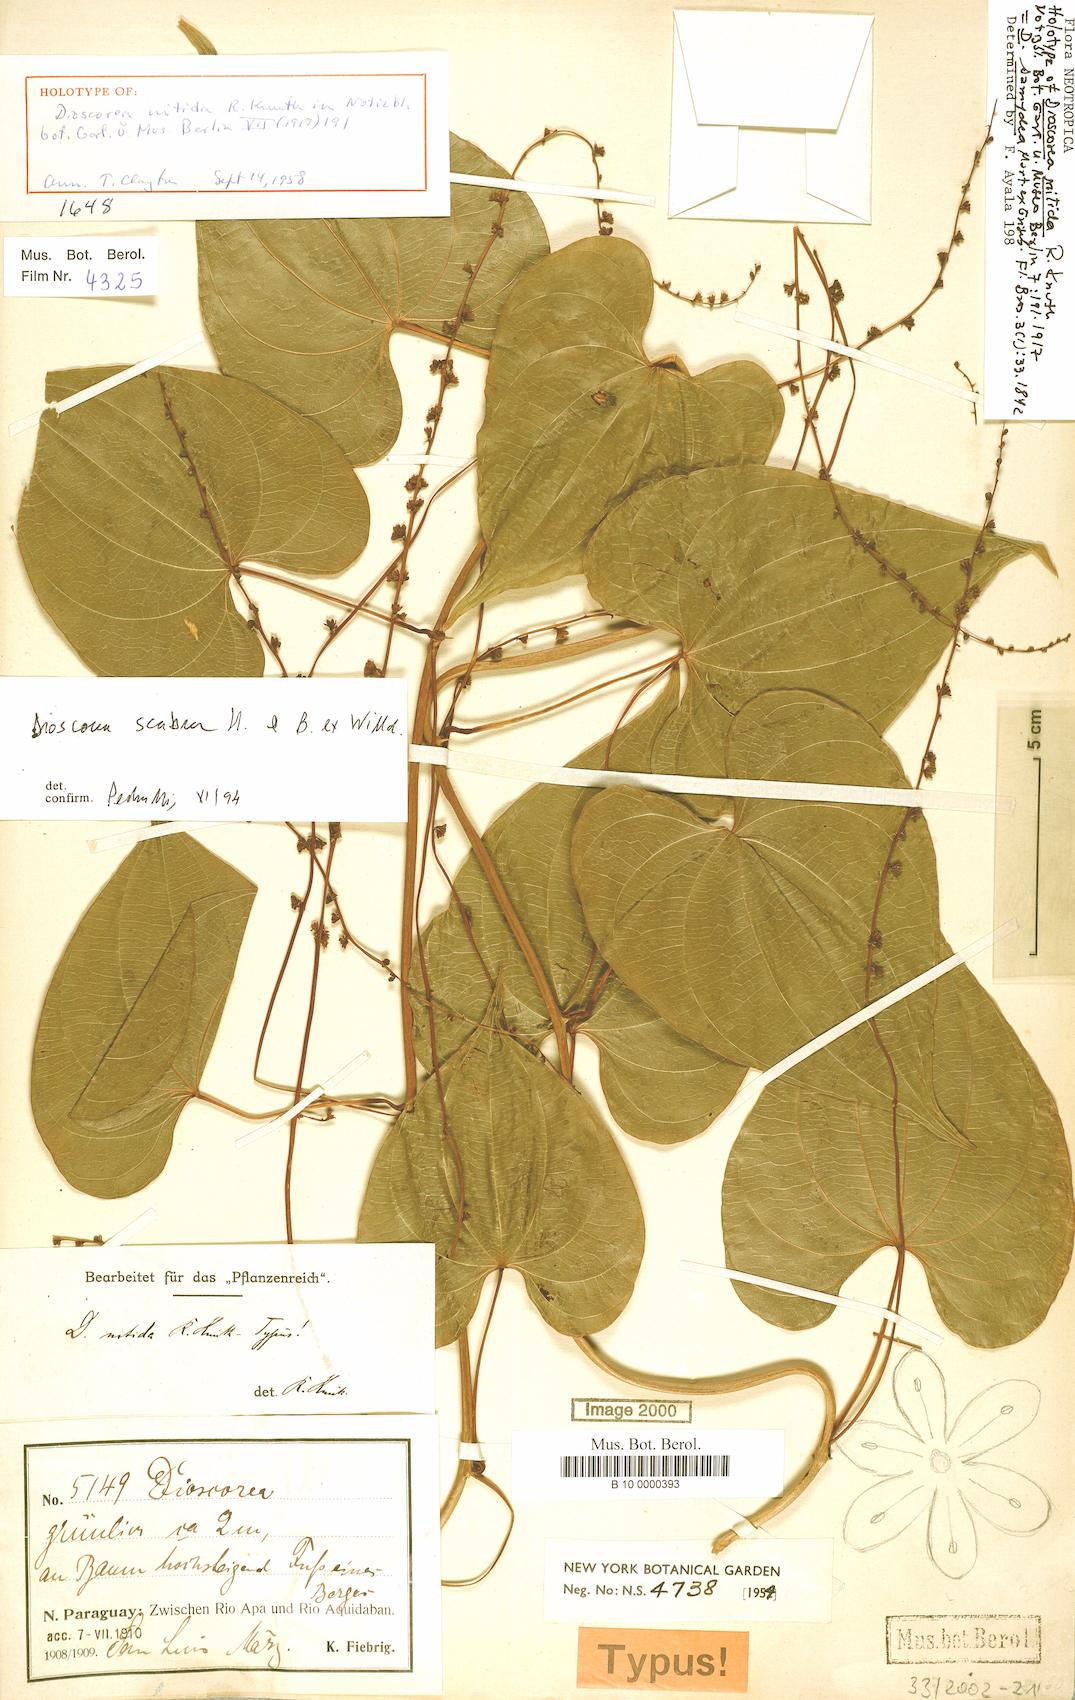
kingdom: Plantae
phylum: Tracheophyta
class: Liliopsida
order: Dioscoreales
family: Dioscoreaceae
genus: Dioscorea
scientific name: Dioscorea chondrocarpa
